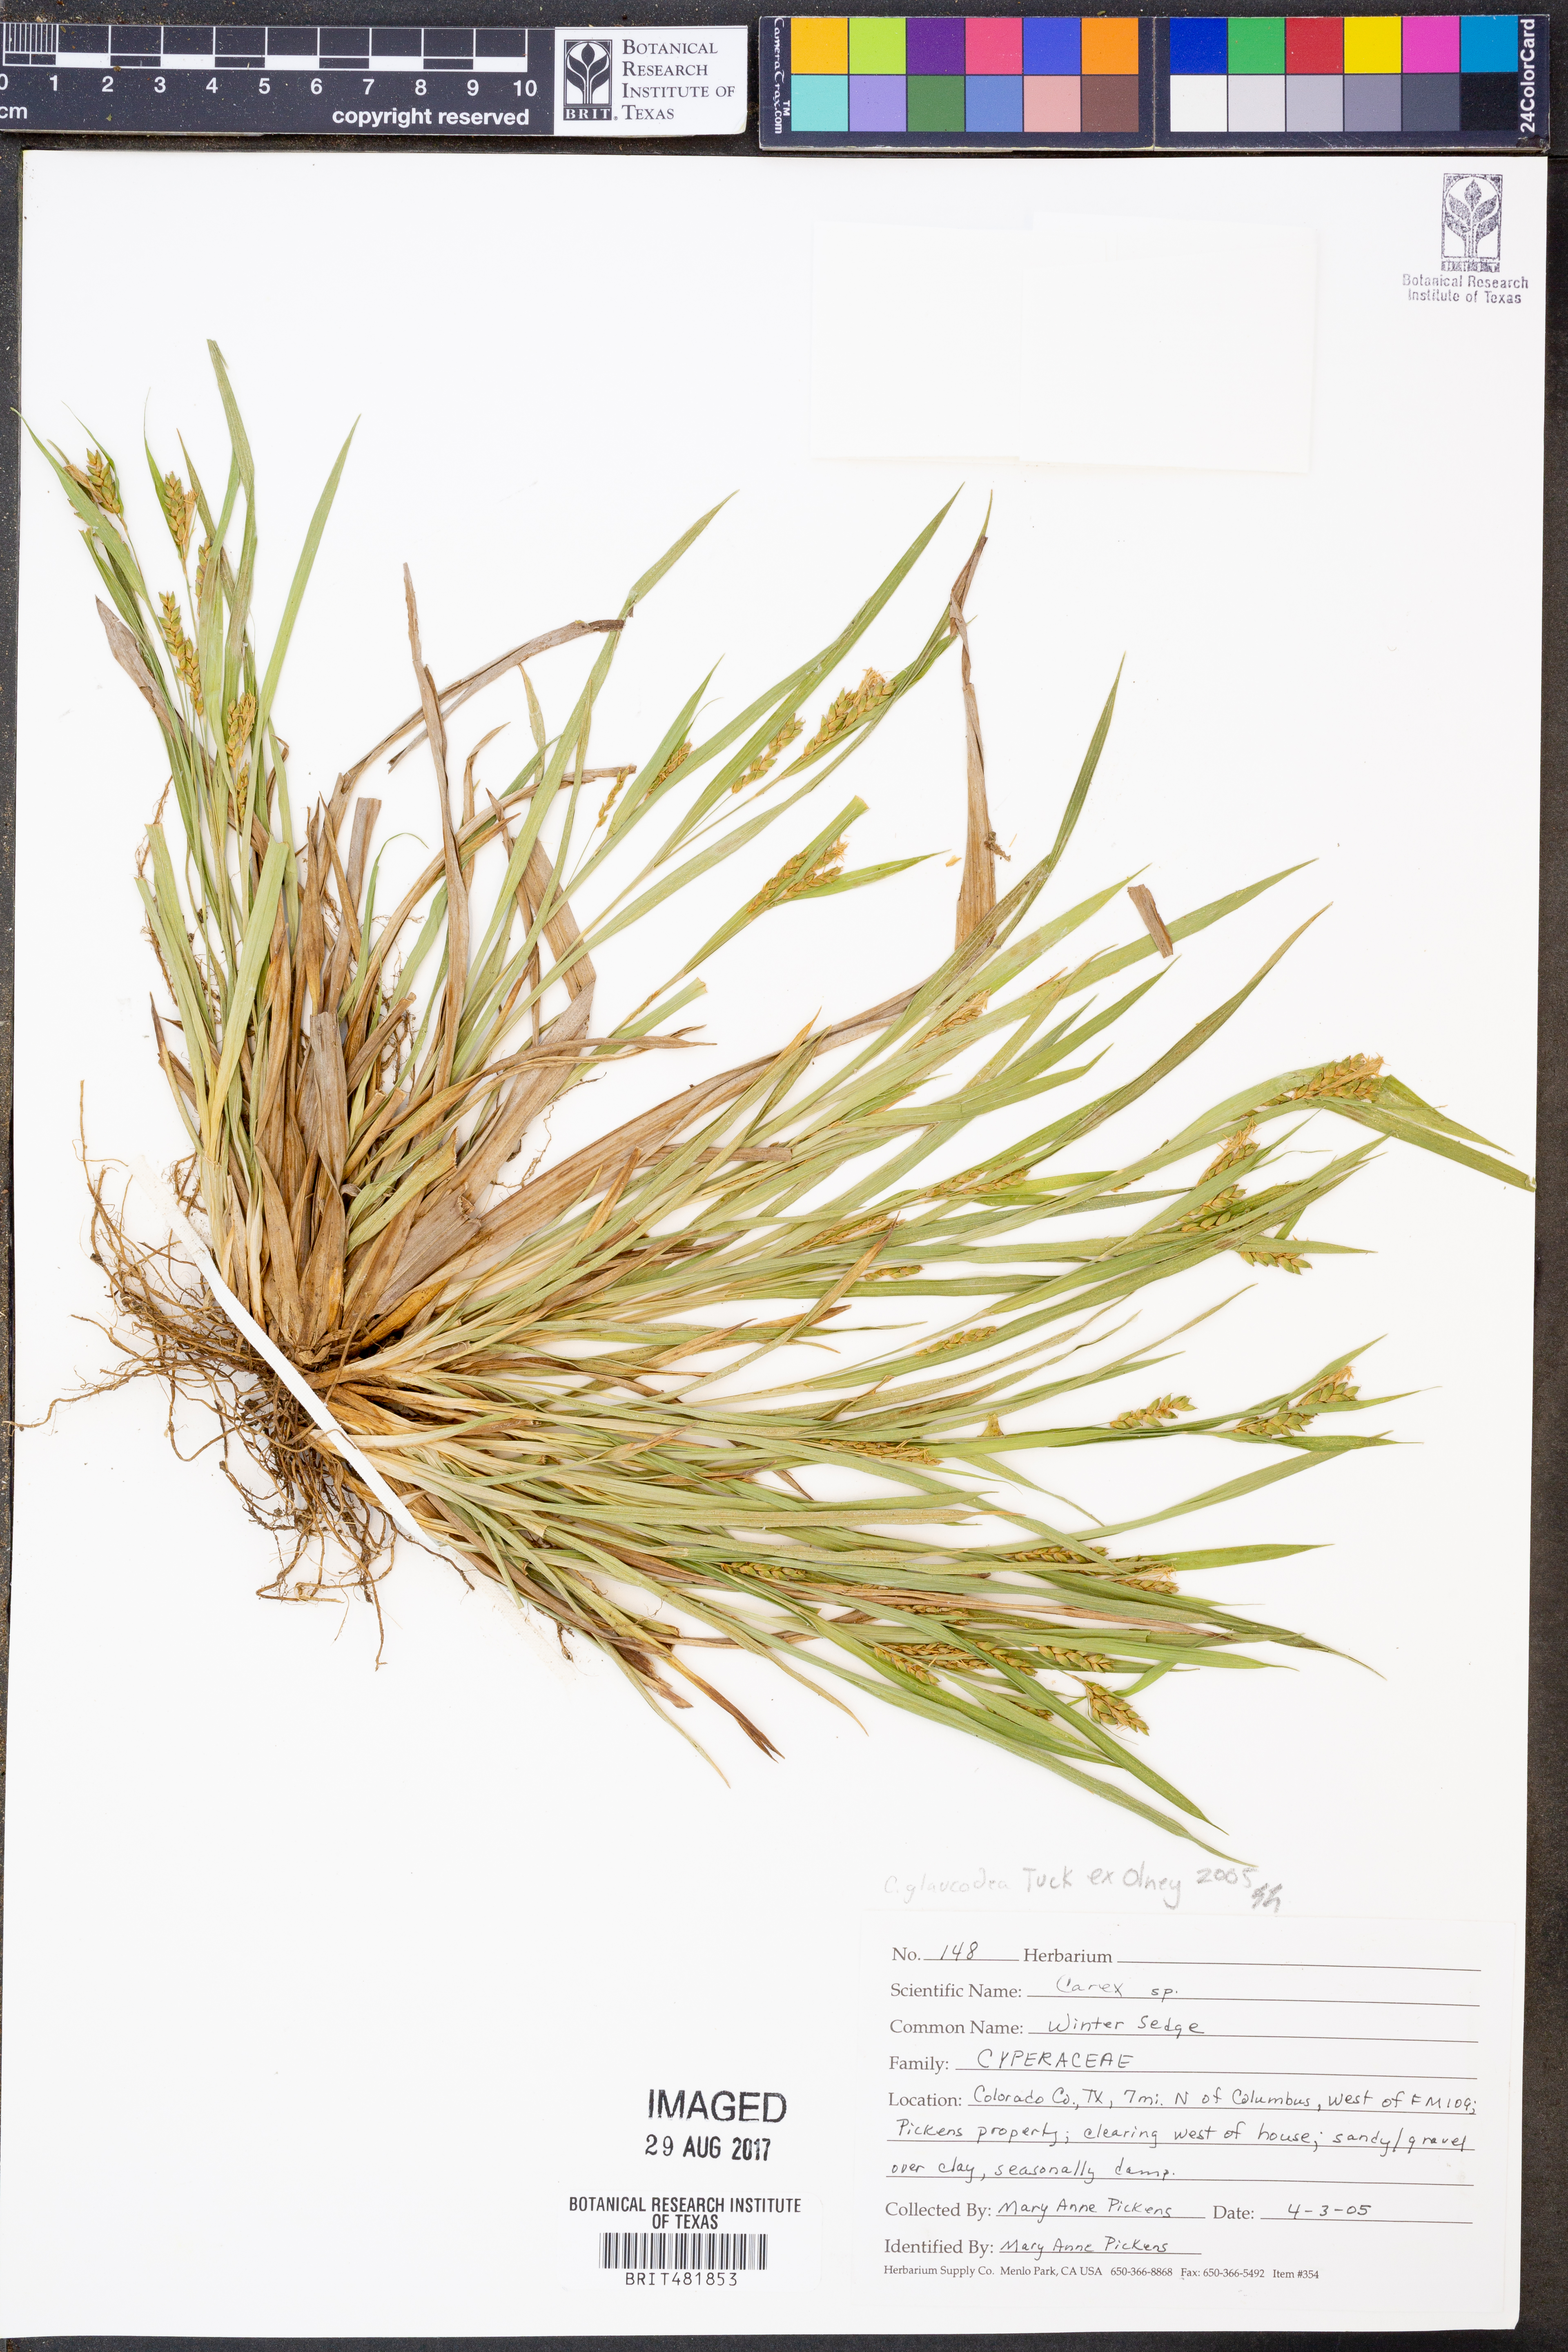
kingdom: Plantae
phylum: Tracheophyta
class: Liliopsida
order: Poales
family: Cyperaceae
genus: Carex
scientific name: Carex
